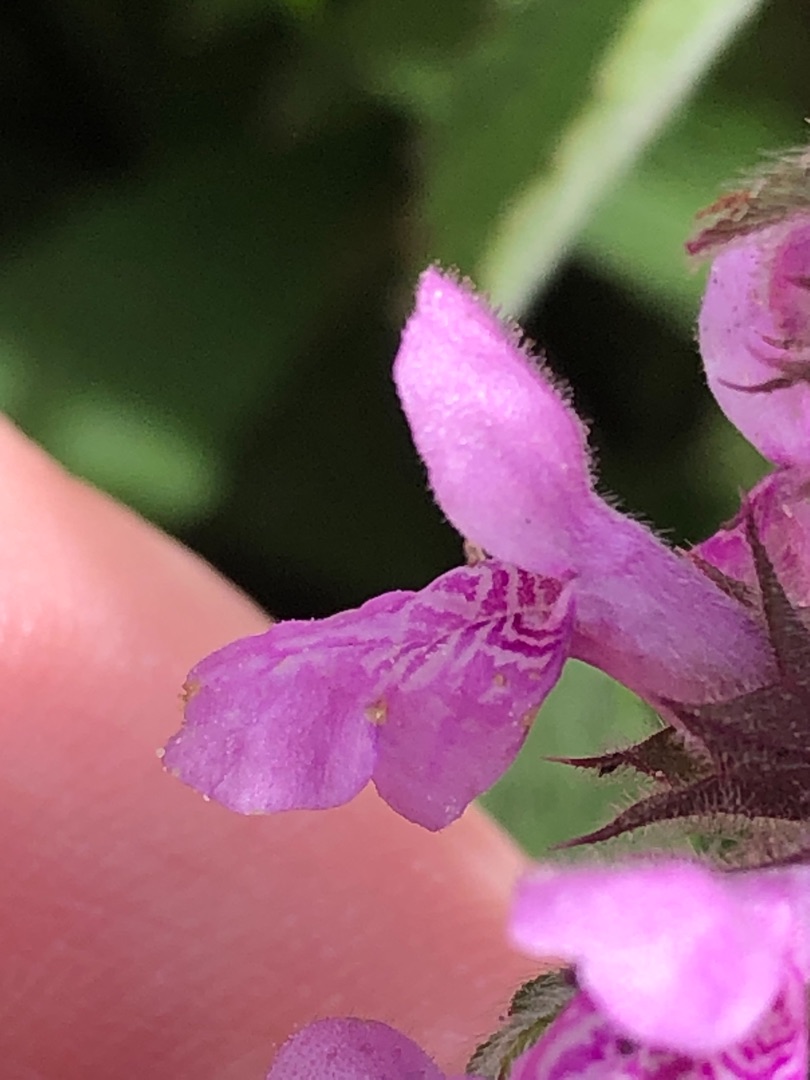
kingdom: Plantae
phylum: Tracheophyta
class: Magnoliopsida
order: Lamiales
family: Lamiaceae
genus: Stachys
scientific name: Stachys palustris
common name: Kær-galtetand
